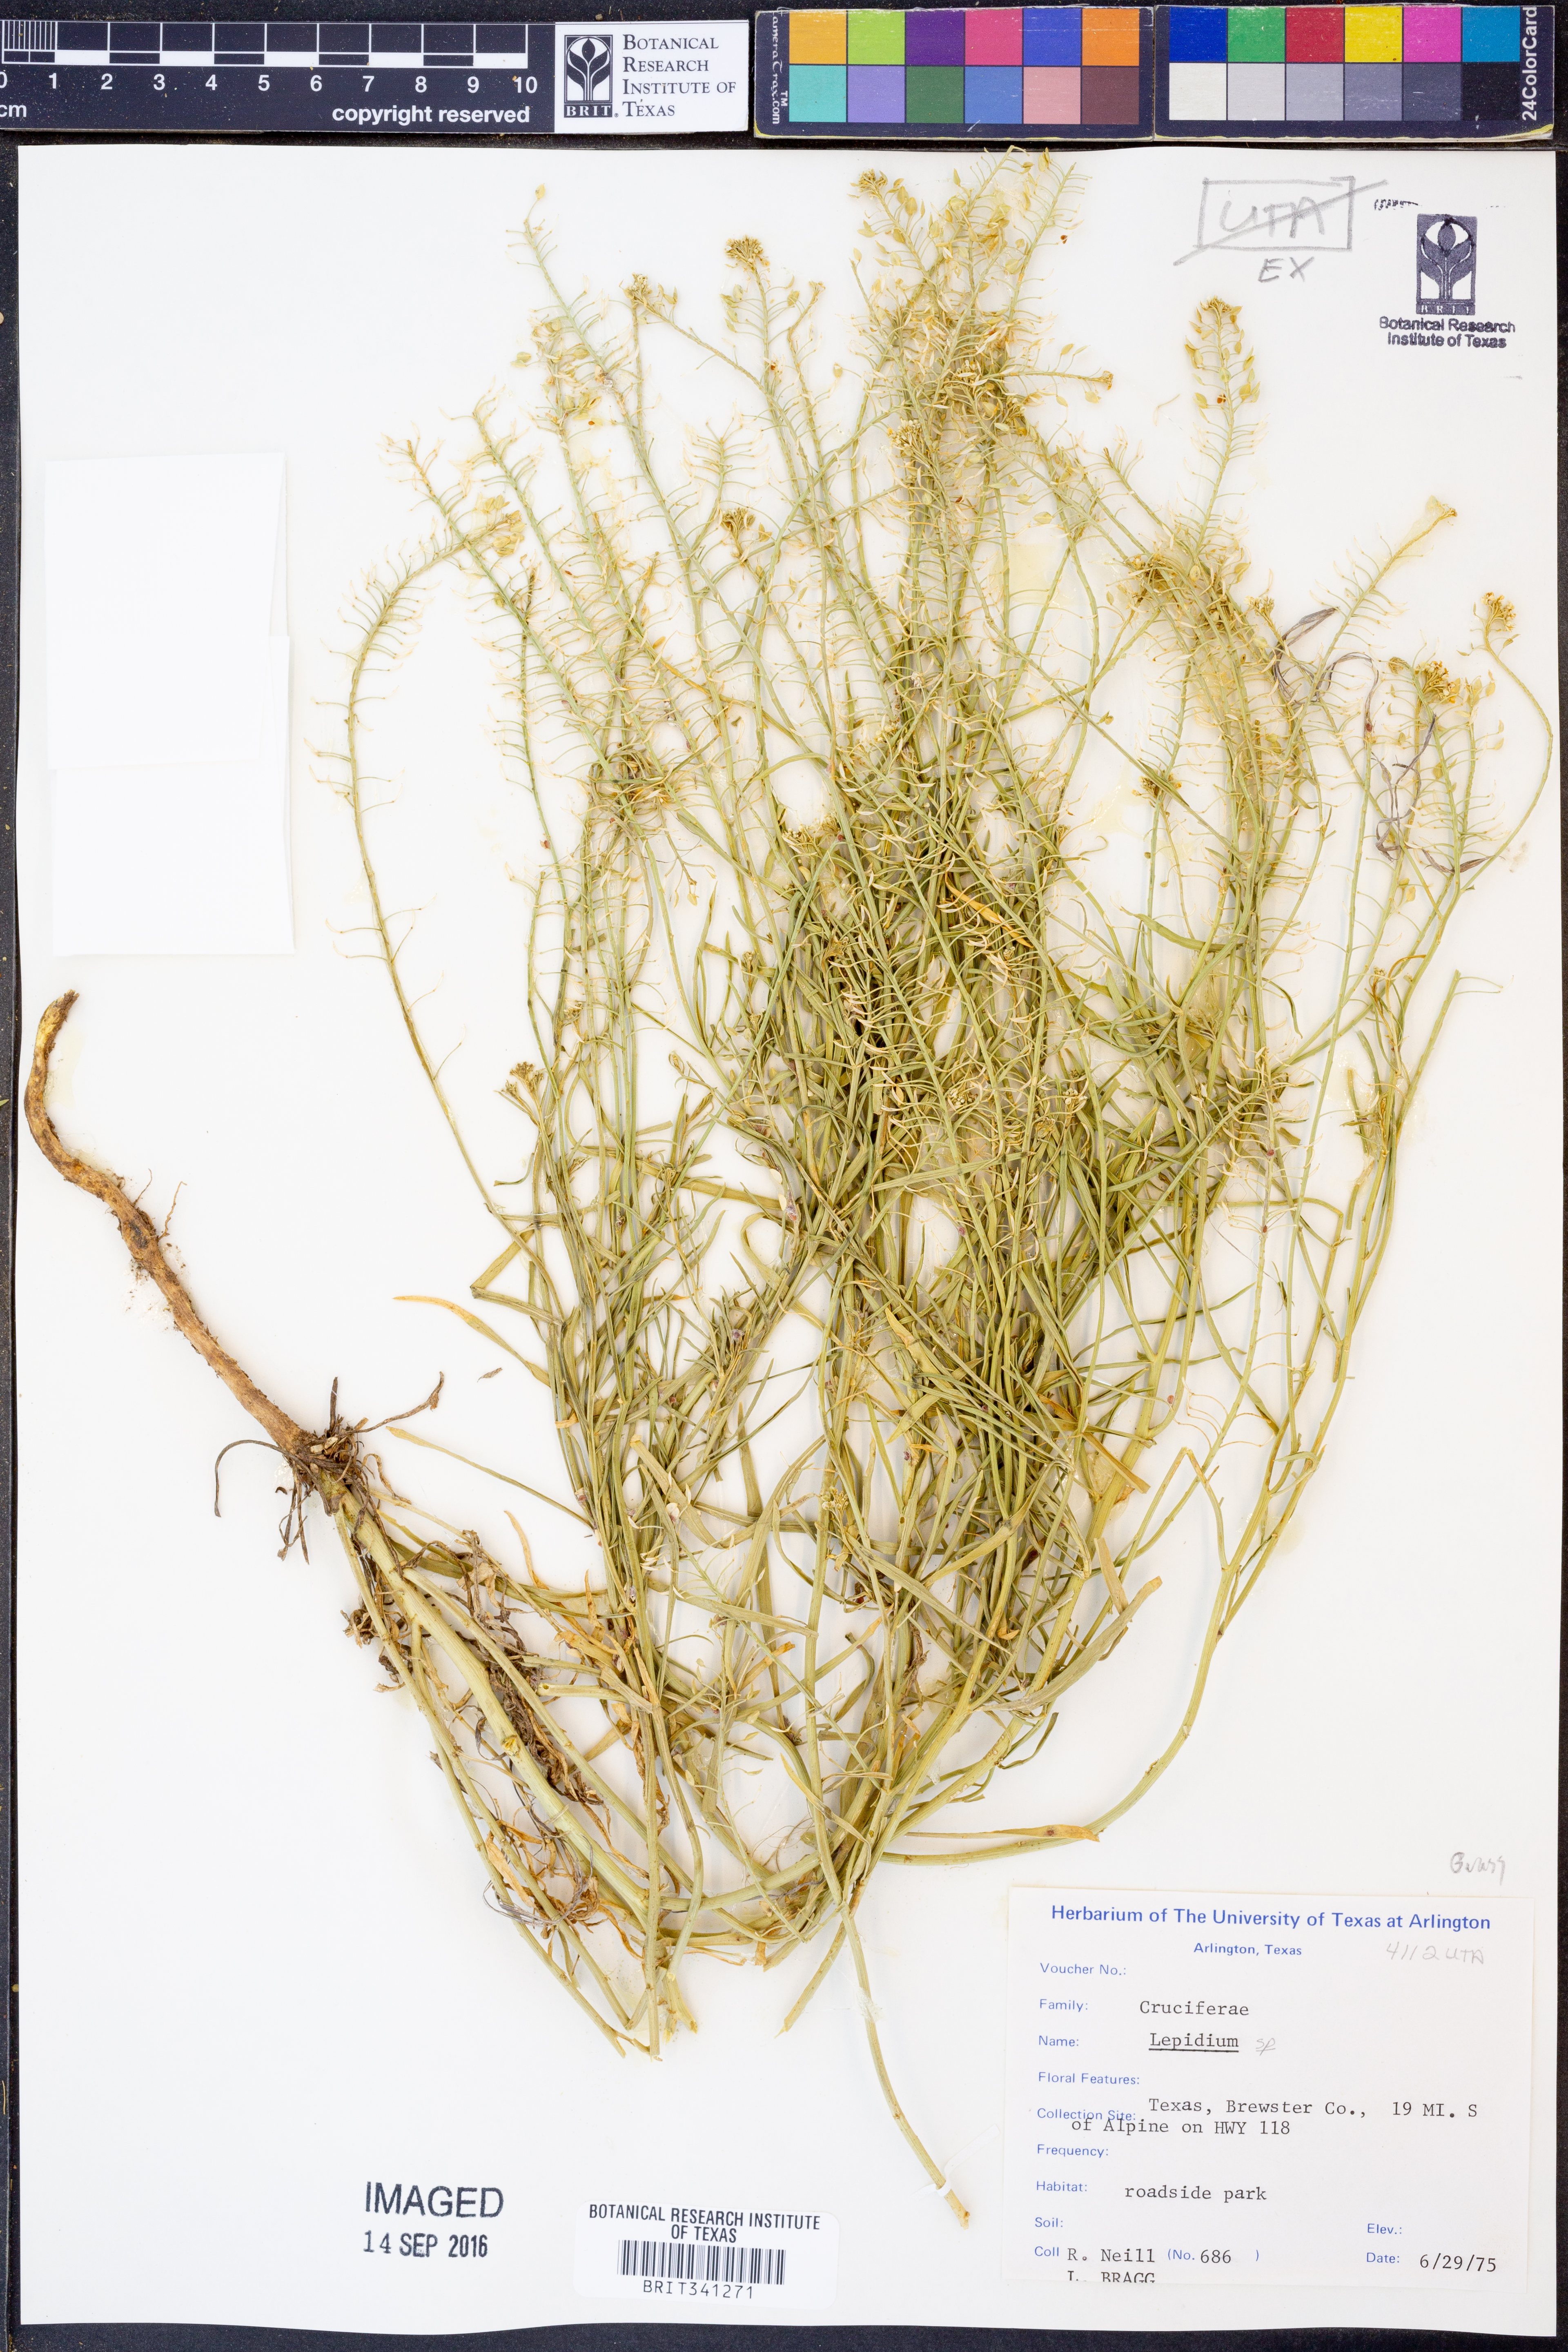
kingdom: Plantae
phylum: Tracheophyta
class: Magnoliopsida
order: Brassicales
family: Brassicaceae
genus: Lepidium
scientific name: Lepidium
